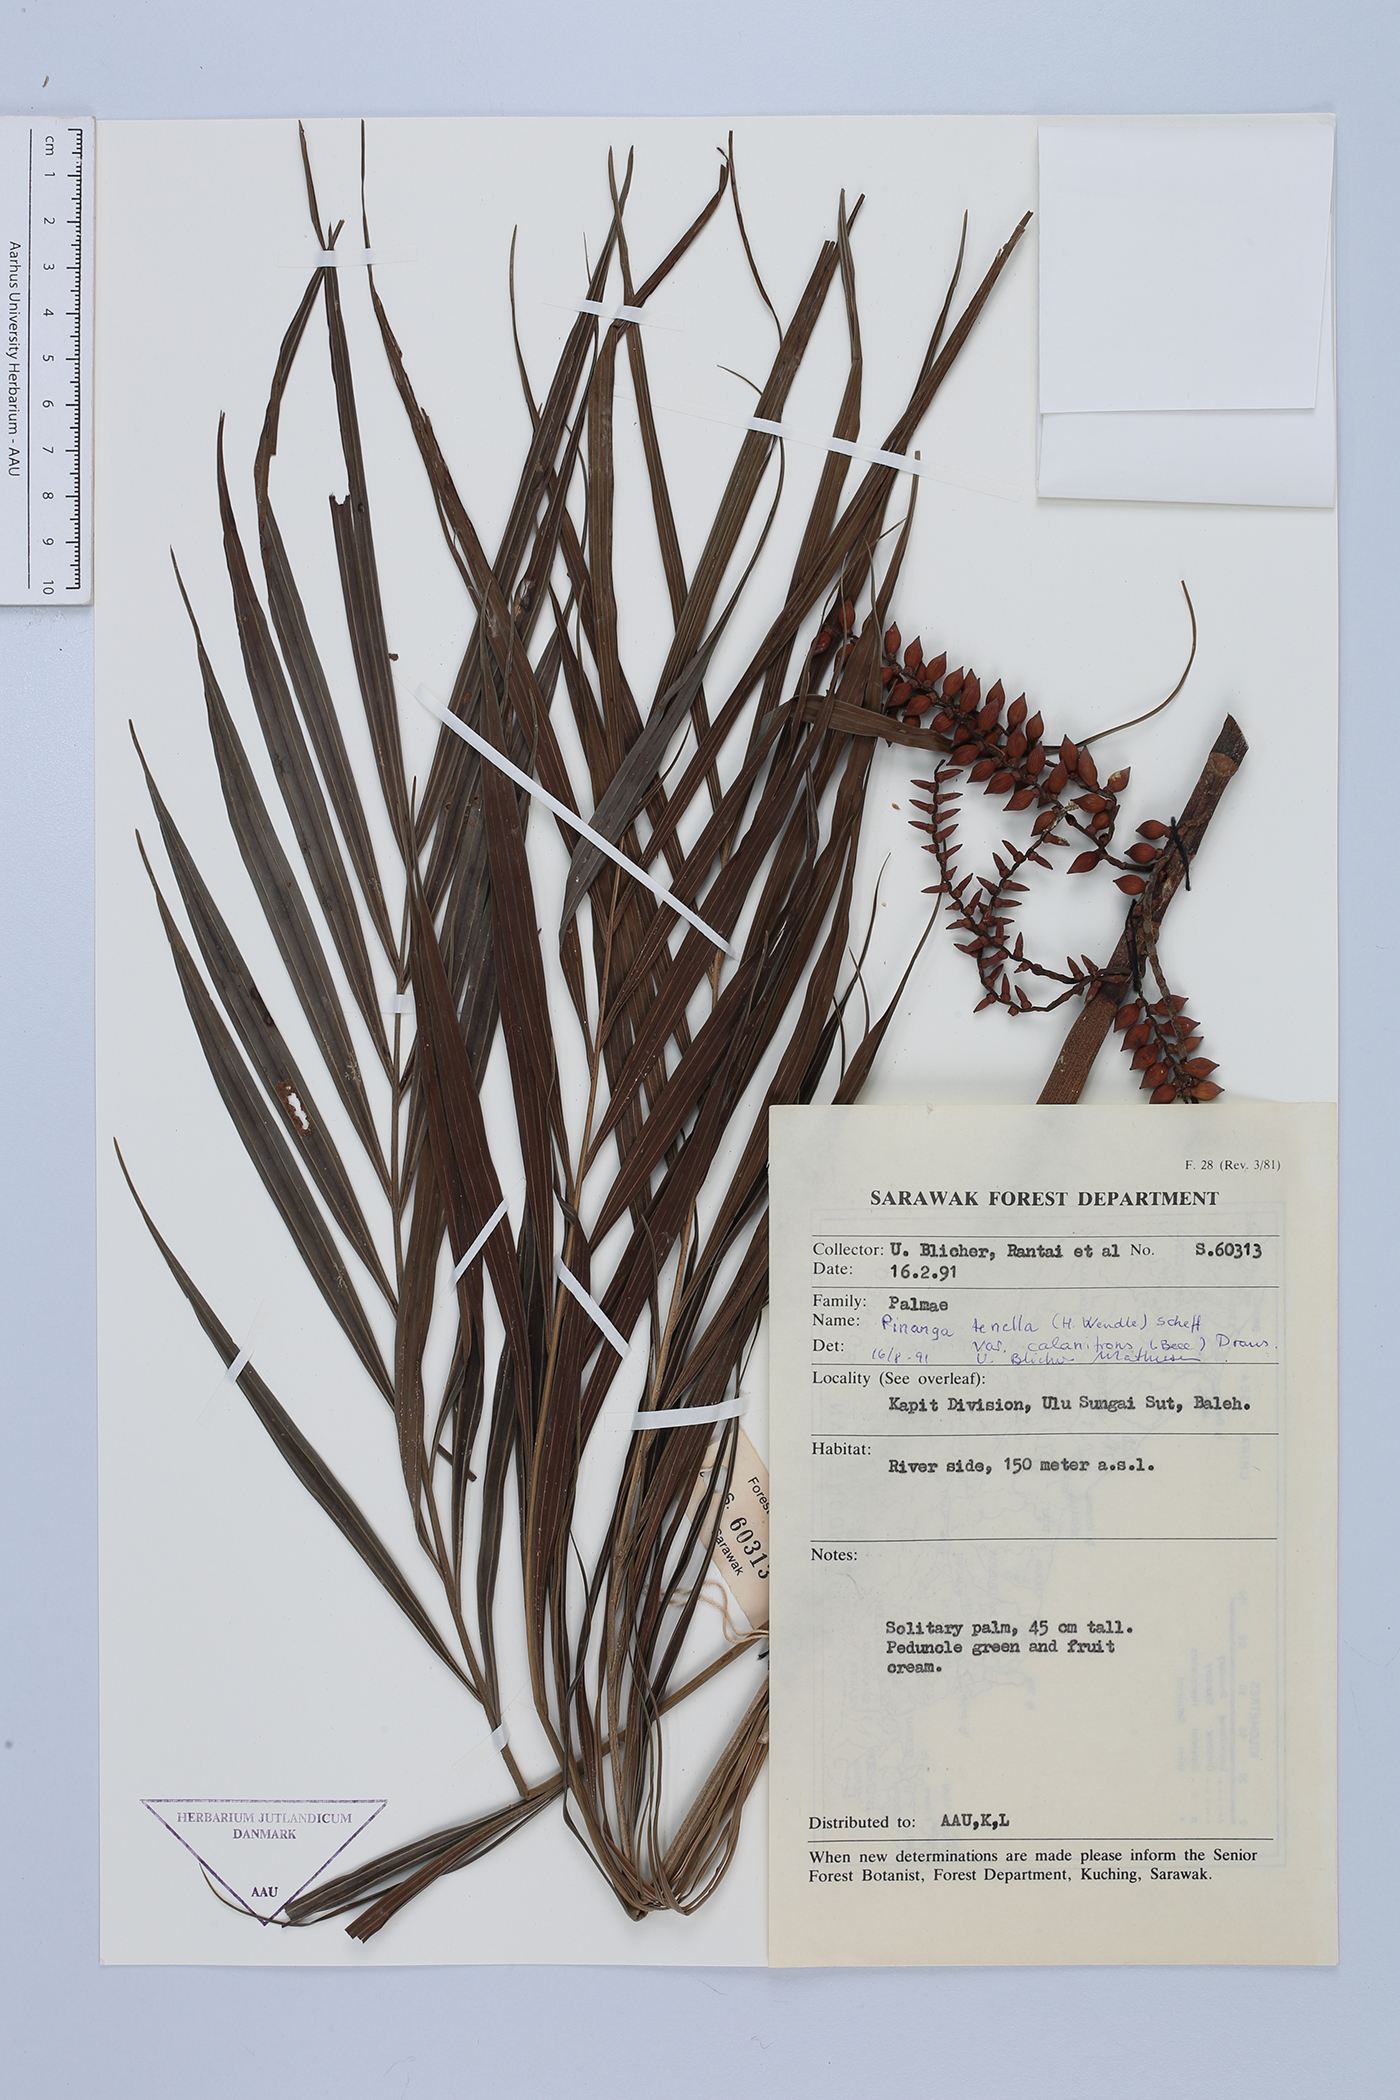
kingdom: Plantae
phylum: Tracheophyta
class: Liliopsida
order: Arecales
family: Arecaceae
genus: Pinanga
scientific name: Pinanga tenella
